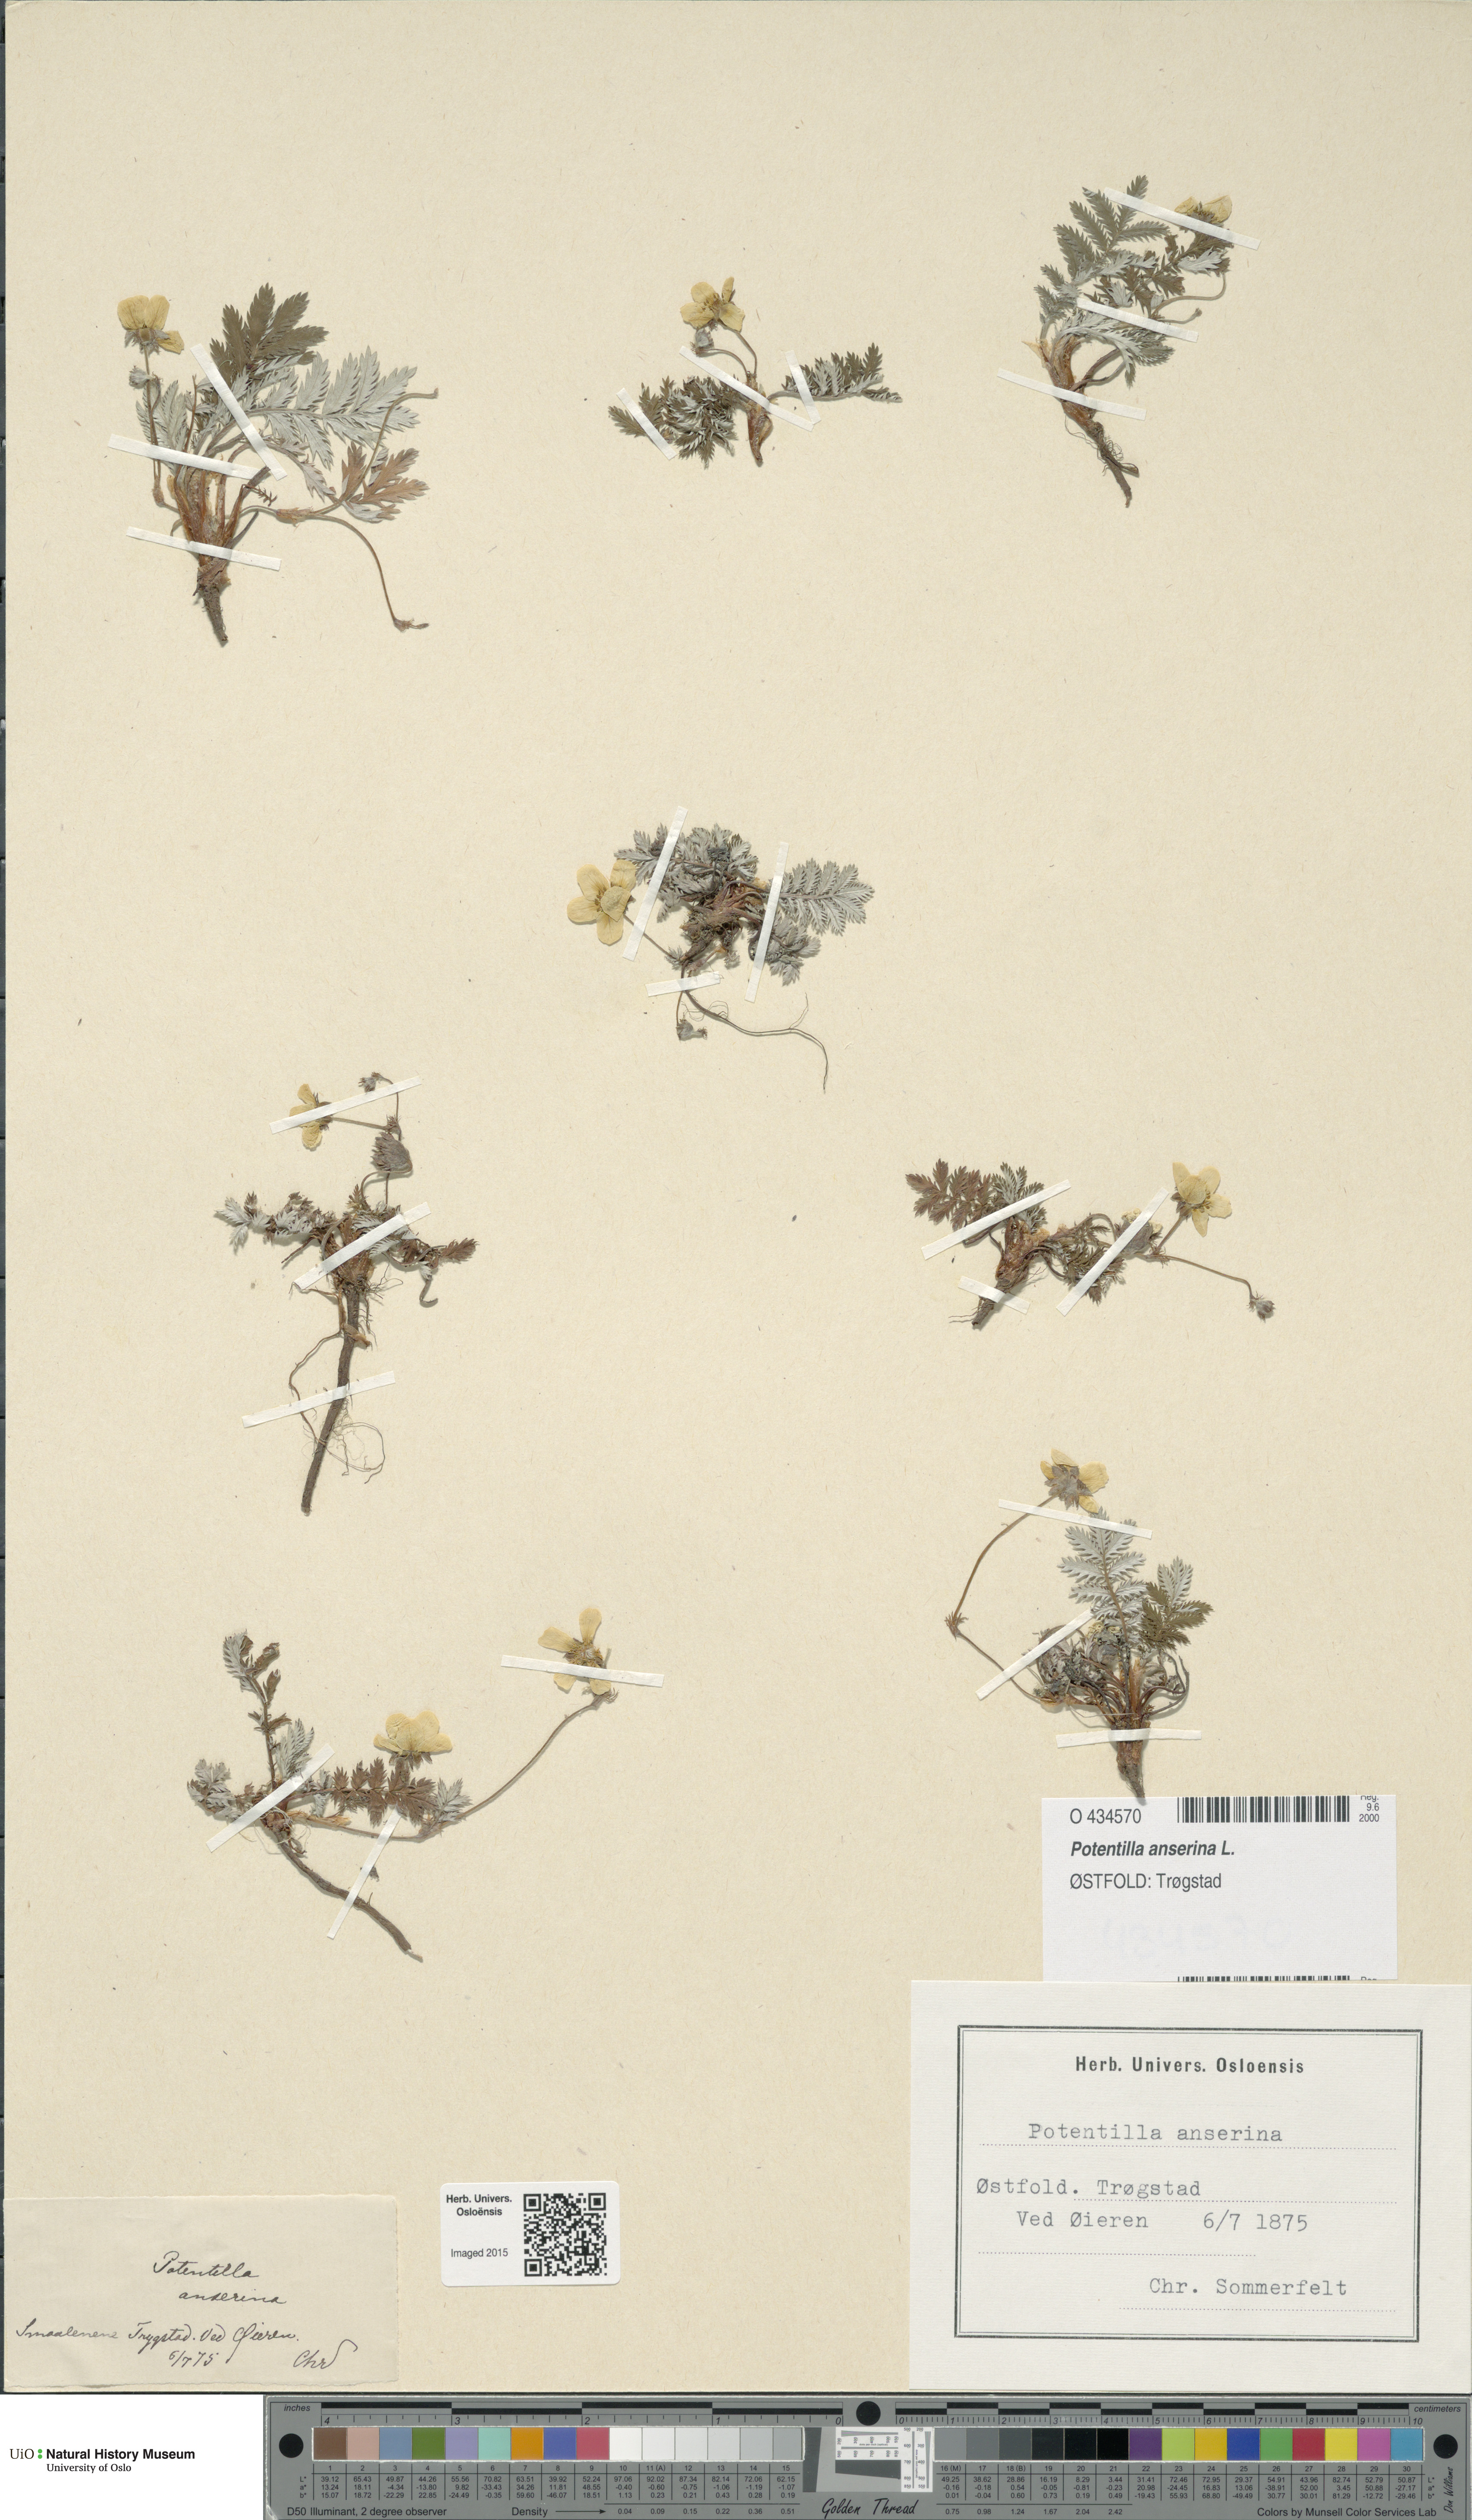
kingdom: Plantae
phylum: Tracheophyta
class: Magnoliopsida
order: Rosales
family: Rosaceae
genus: Argentina
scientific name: Argentina anserina
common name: Common silverweed
